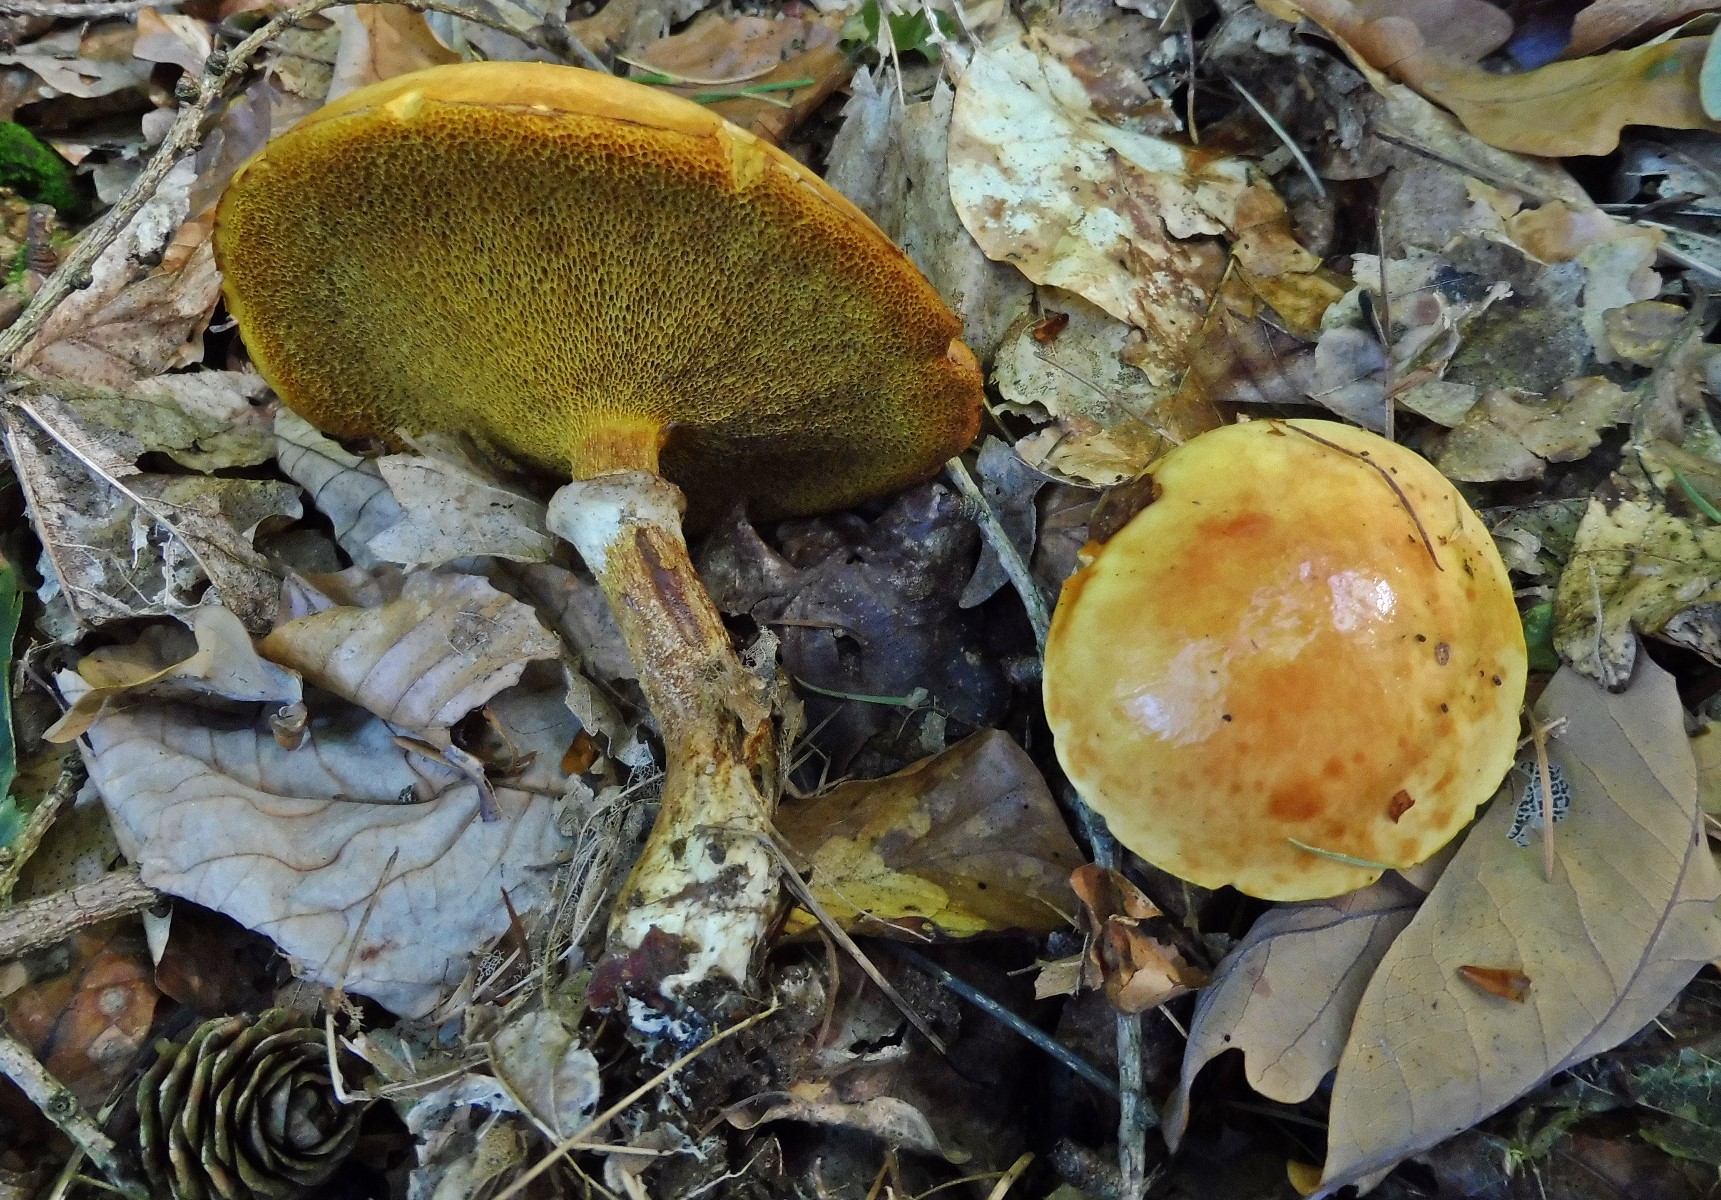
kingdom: Fungi
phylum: Basidiomycota
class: Agaricomycetes
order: Boletales
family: Suillaceae
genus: Suillus
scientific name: Suillus grevillei
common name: lærke-slimrørhat
